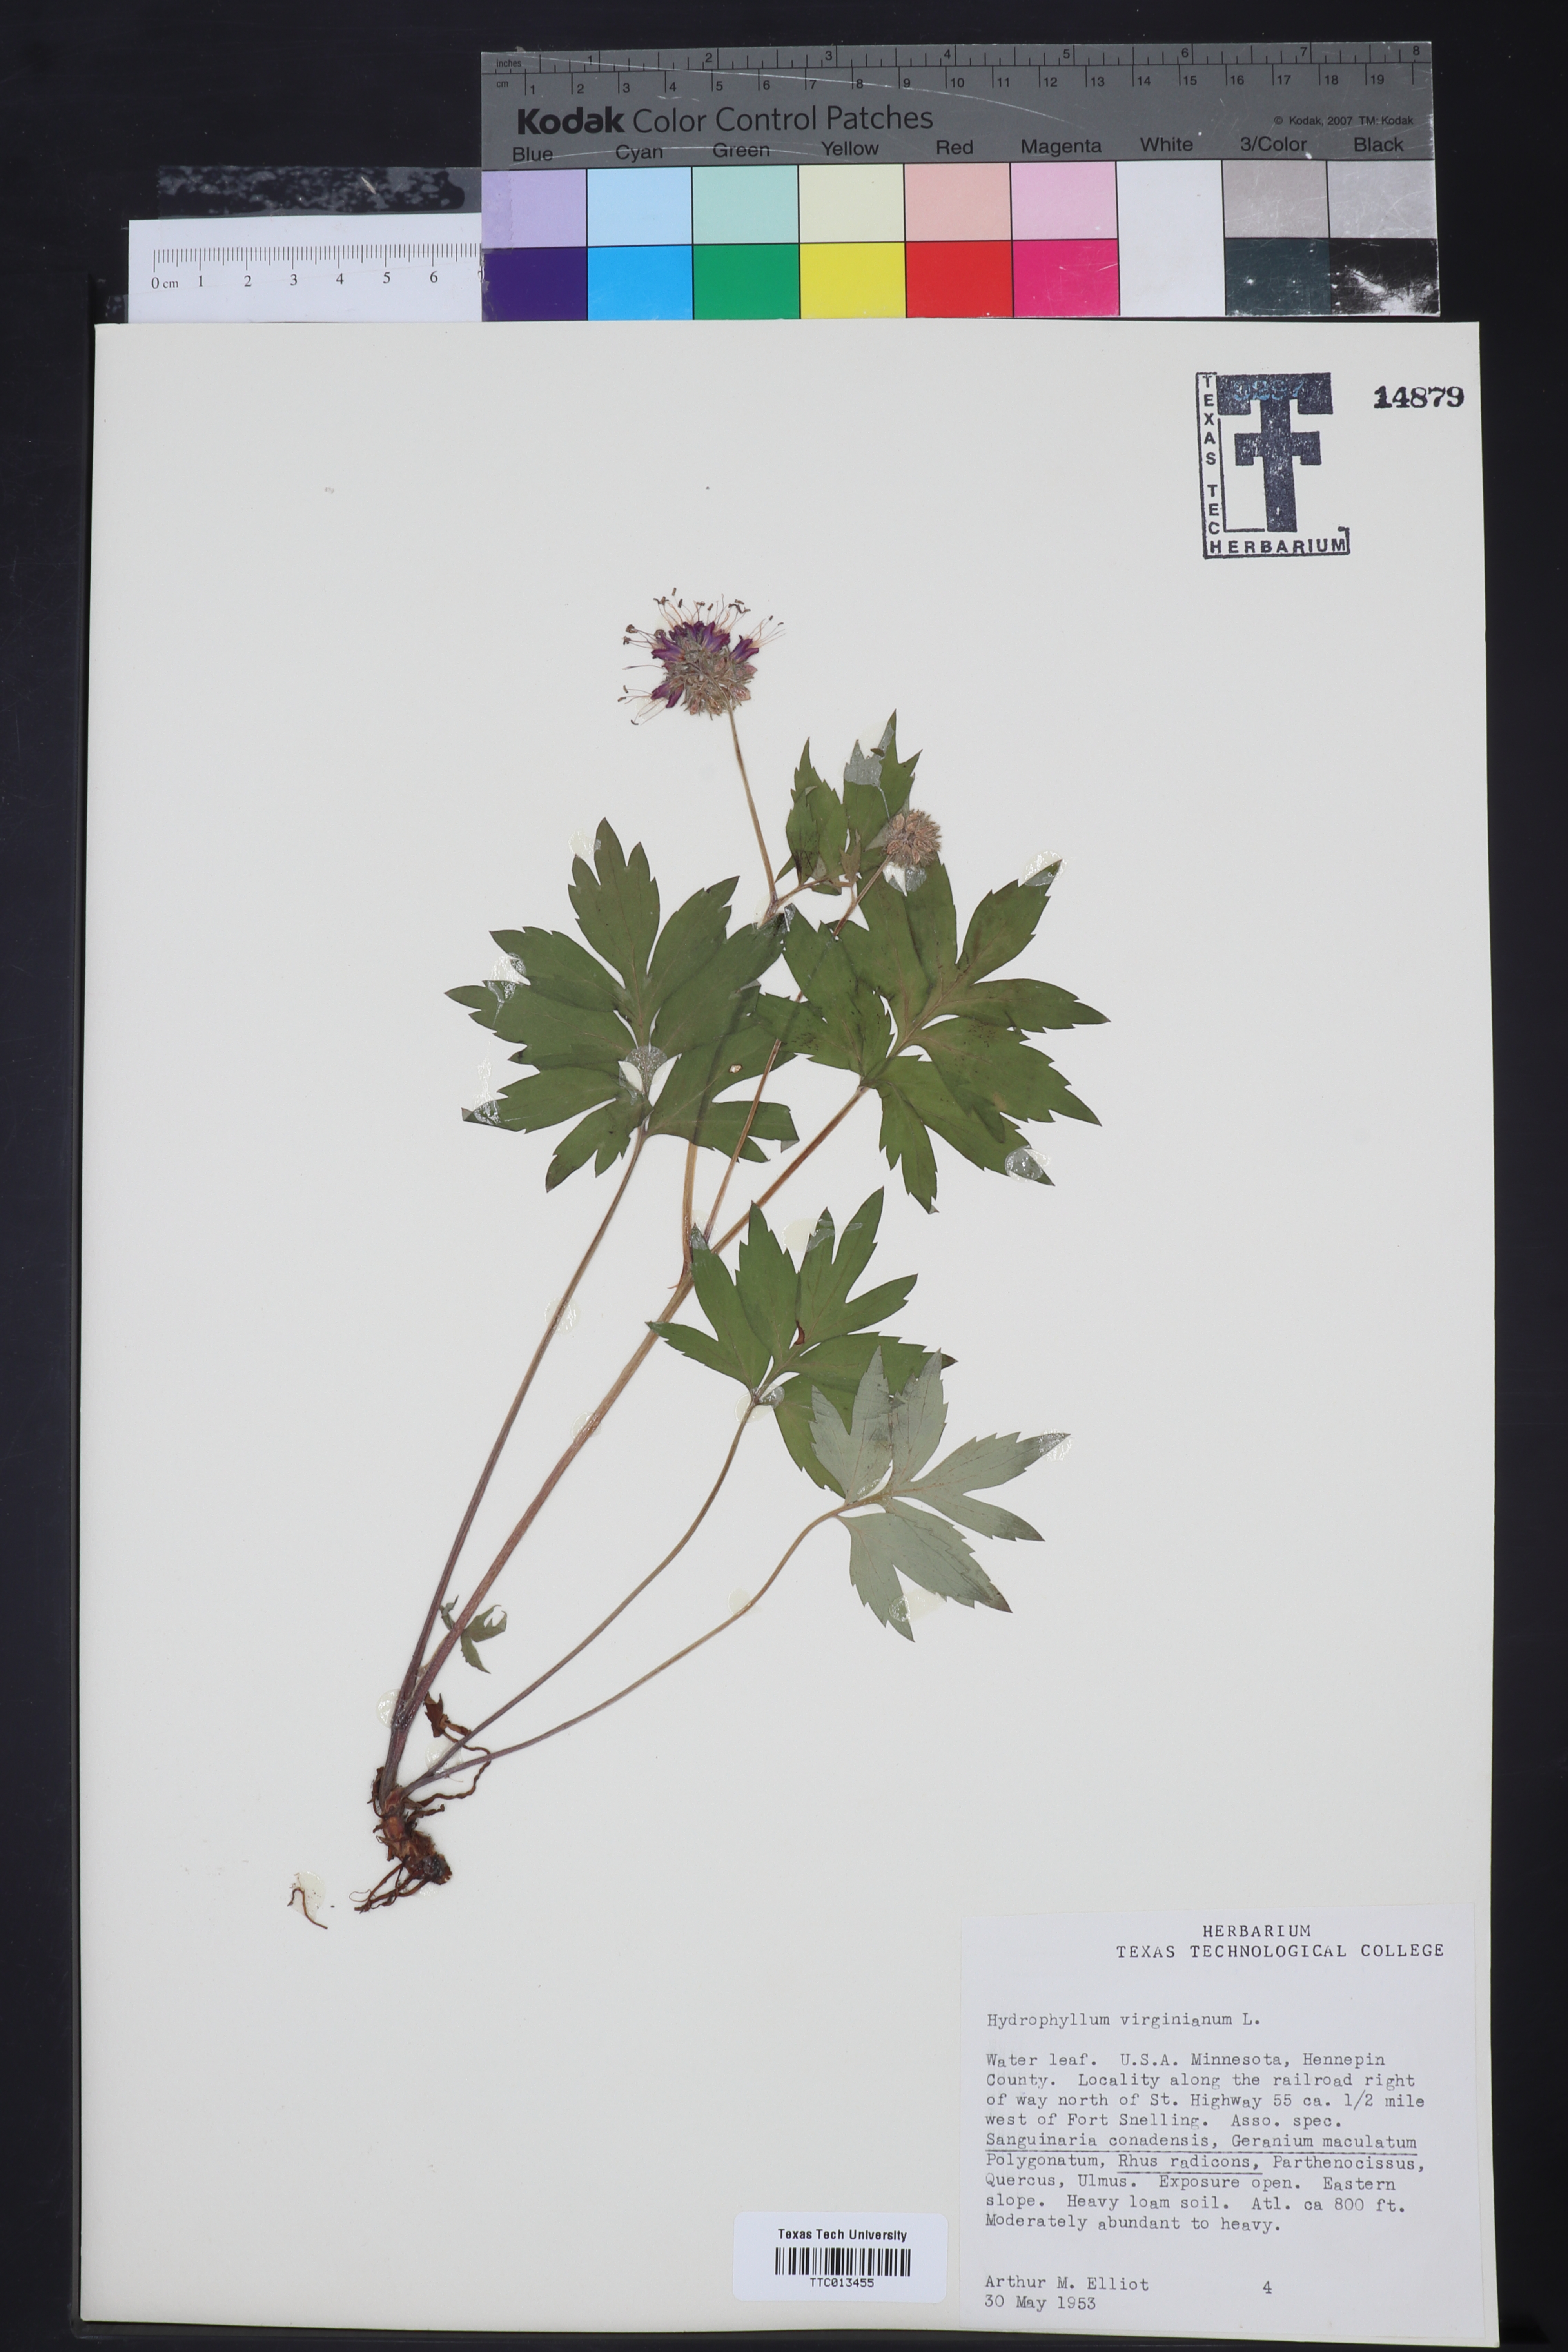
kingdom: Plantae
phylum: Tracheophyta
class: Magnoliopsida
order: Boraginales
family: Hydrophyllaceae
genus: Hydrophyllum
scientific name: Hydrophyllum virginianum
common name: Virginia waterleaf
